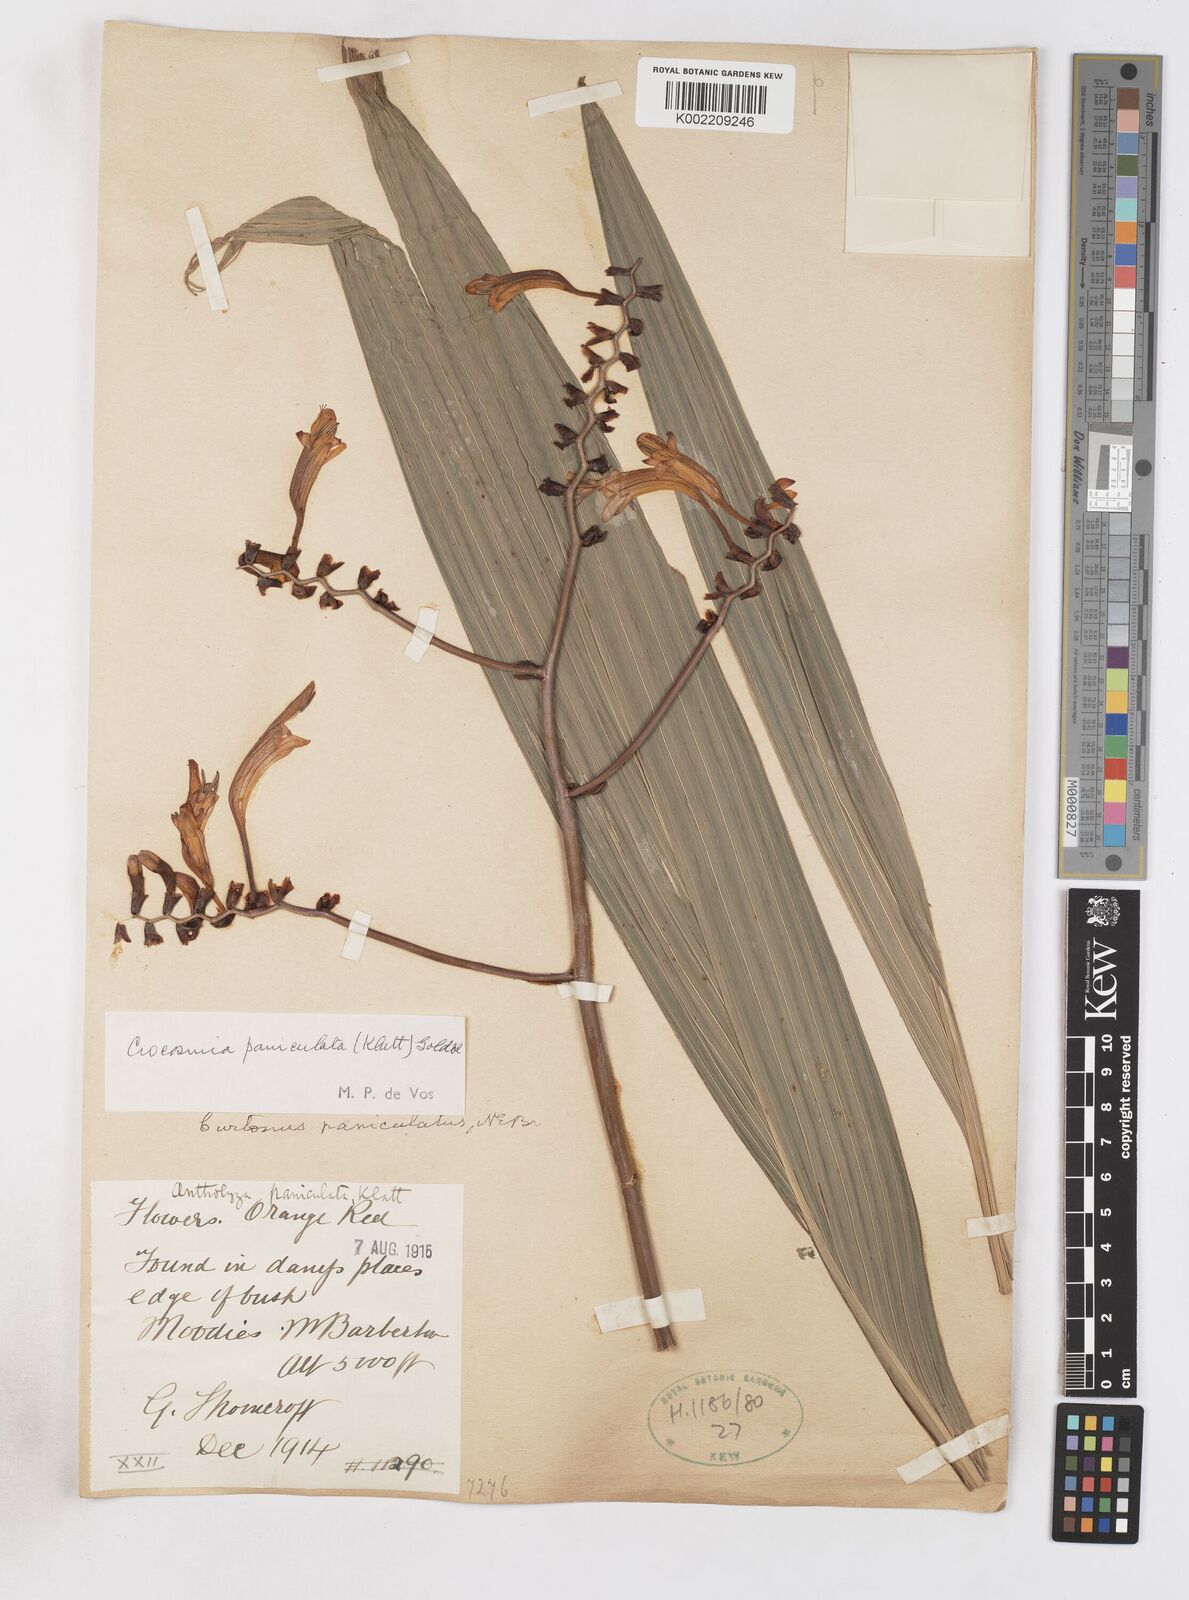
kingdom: Plantae
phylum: Tracheophyta
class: Liliopsida
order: Asparagales
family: Iridaceae
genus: Crocosmia
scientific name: Crocosmia paniculata
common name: Aunt eliza
